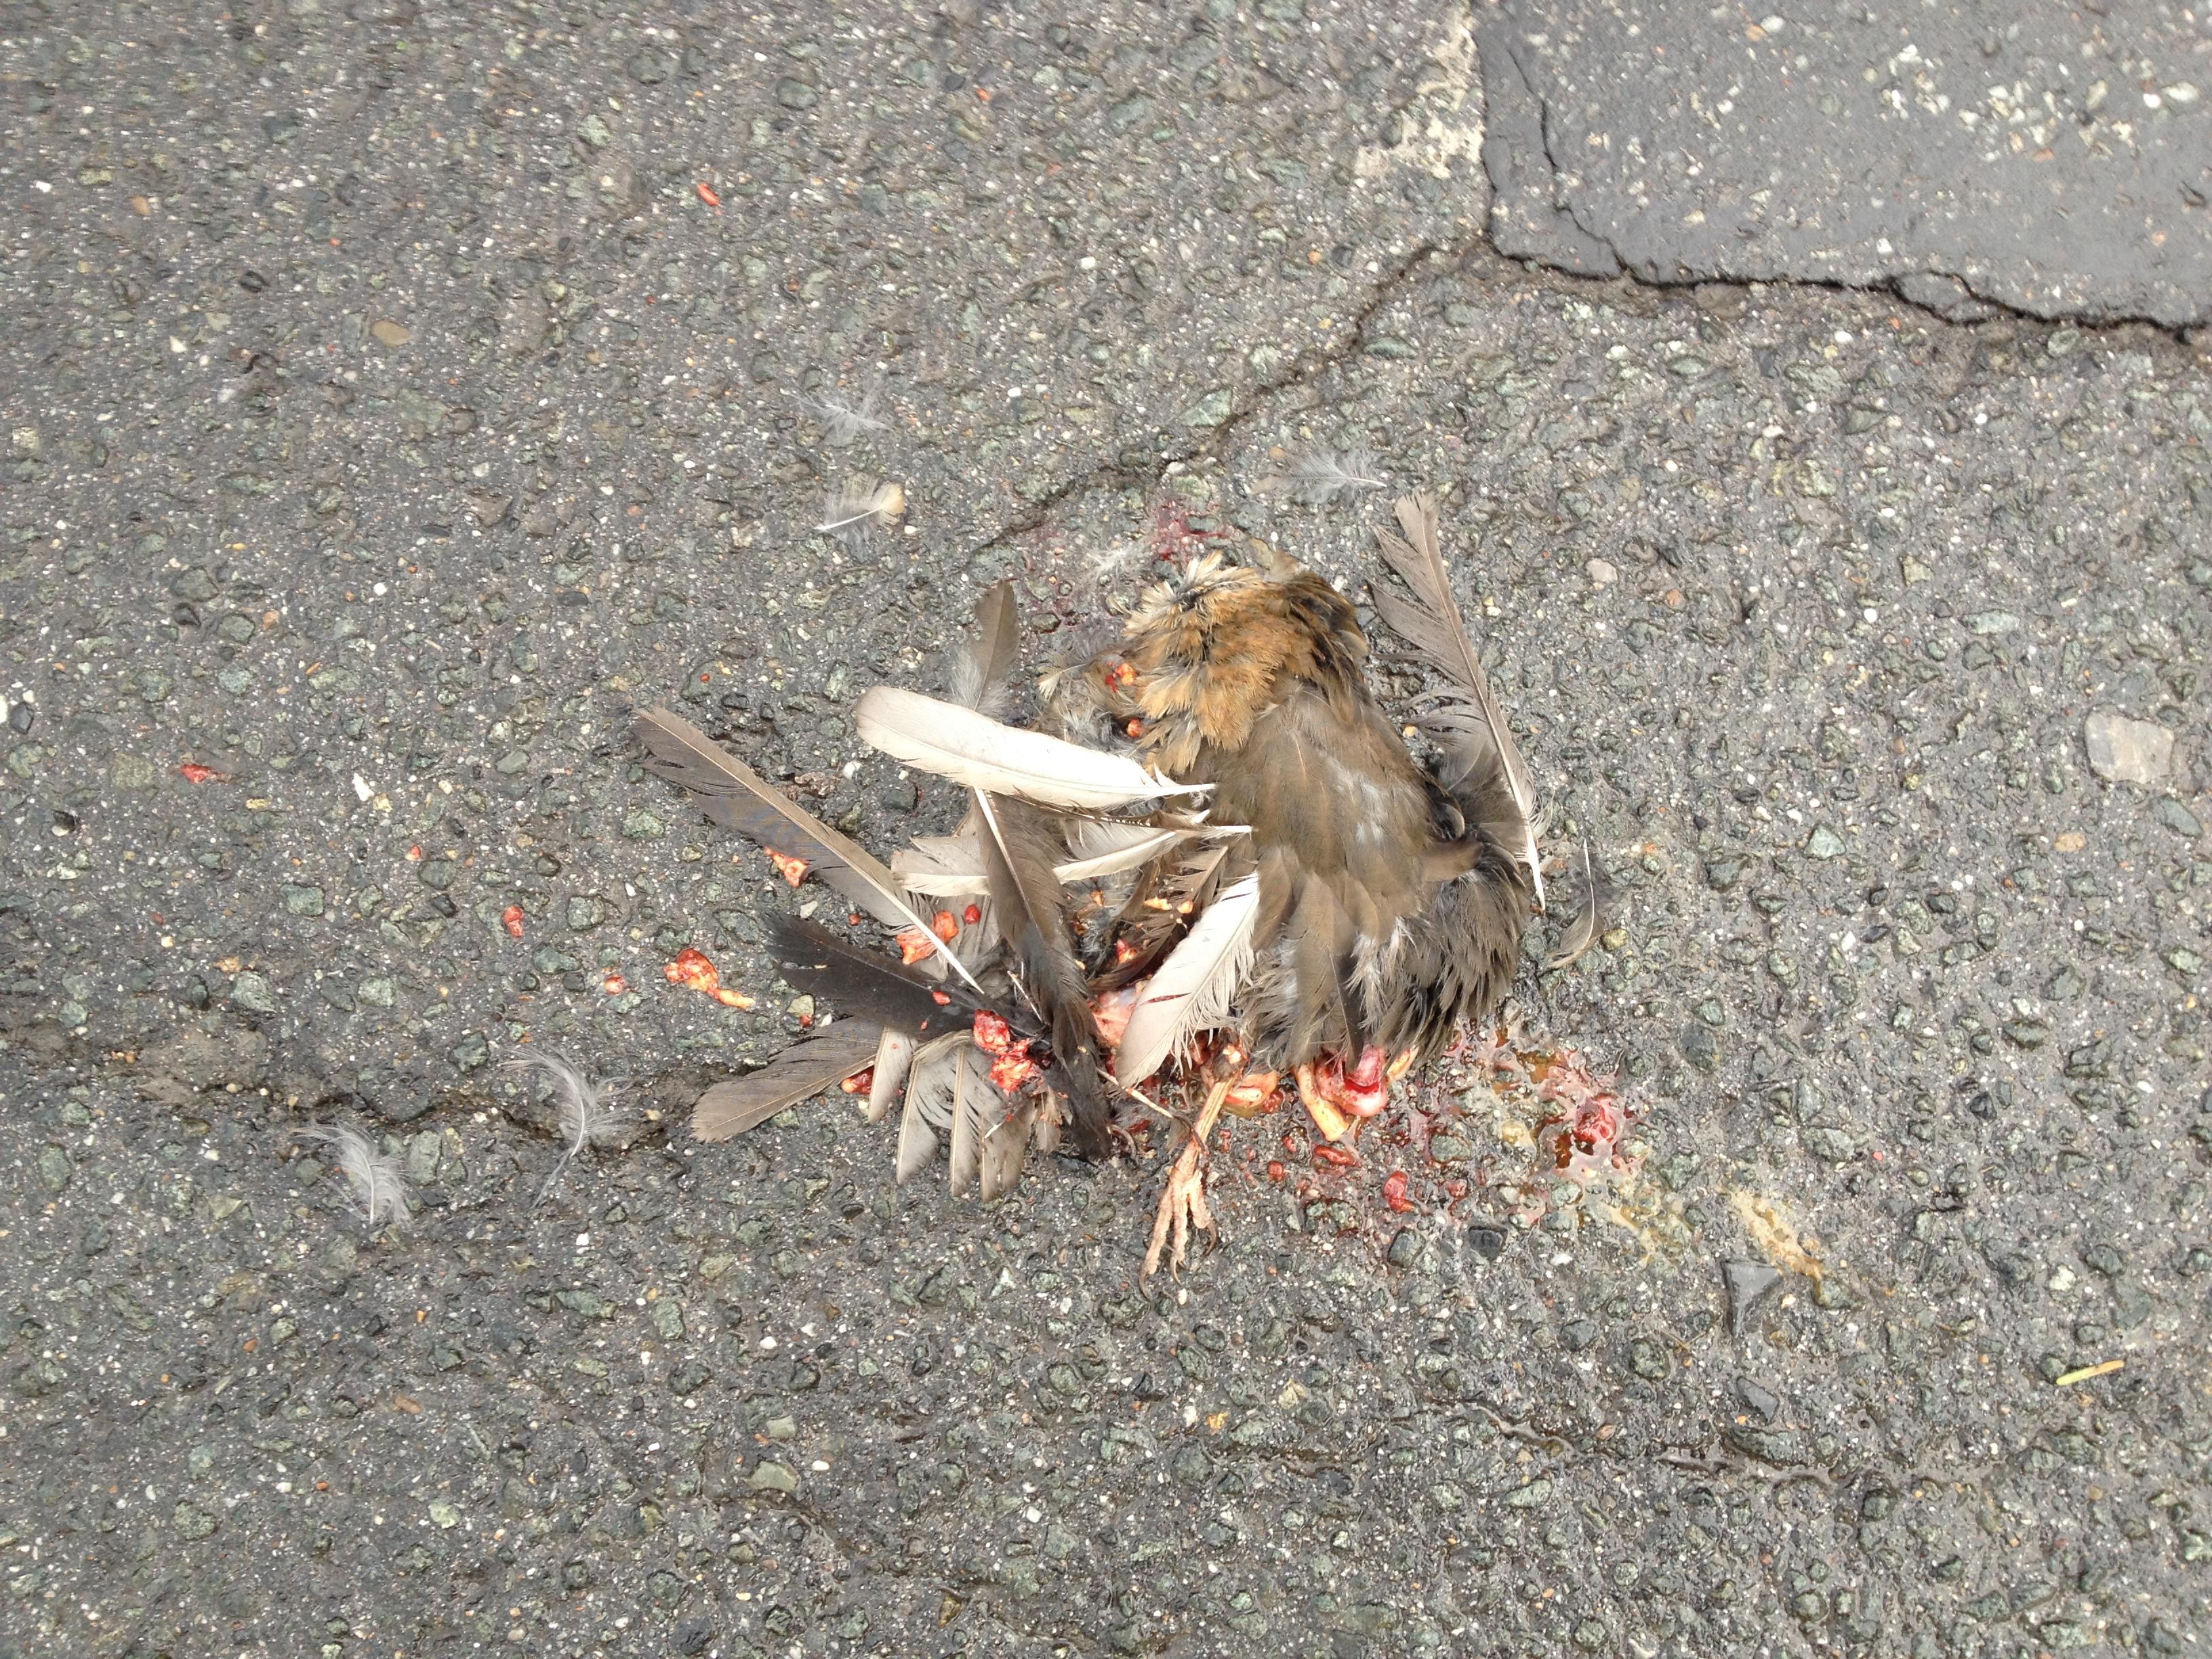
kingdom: Animalia
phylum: Chordata
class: Aves
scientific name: Aves
